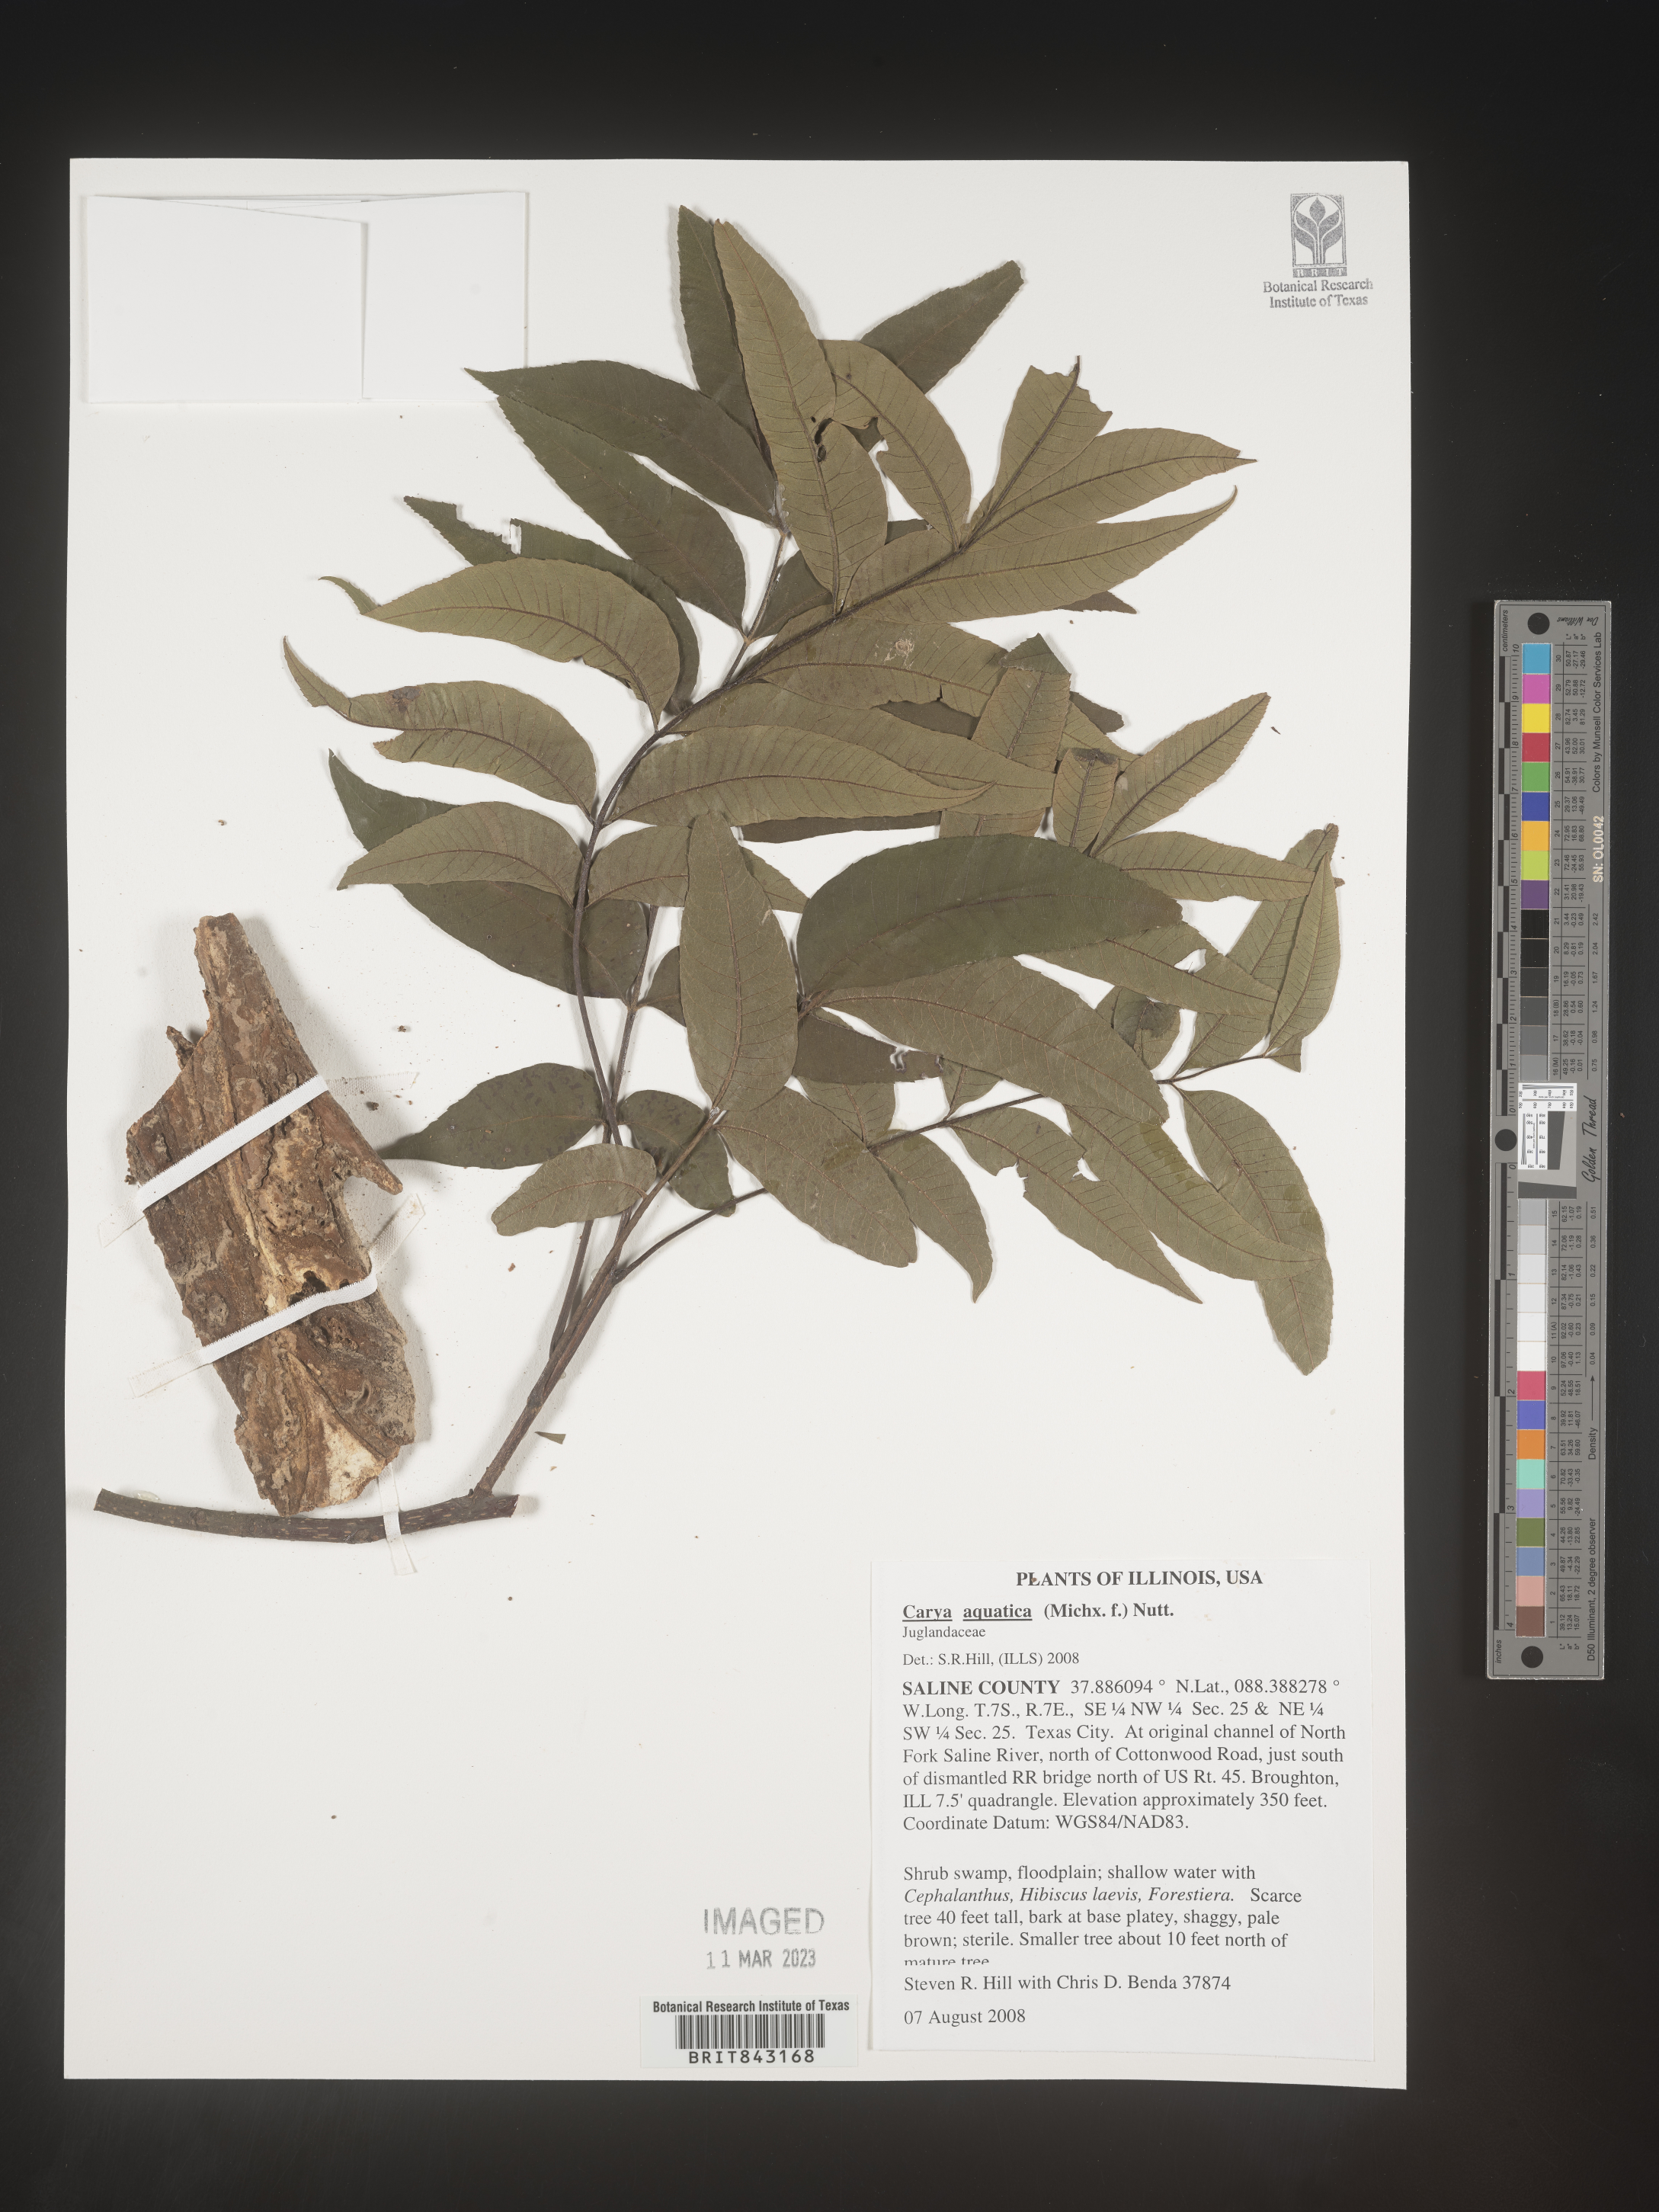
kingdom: Plantae
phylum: Tracheophyta
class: Magnoliopsida
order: Fagales
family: Juglandaceae
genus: Carya
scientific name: Carya aquatica
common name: Water hickory
